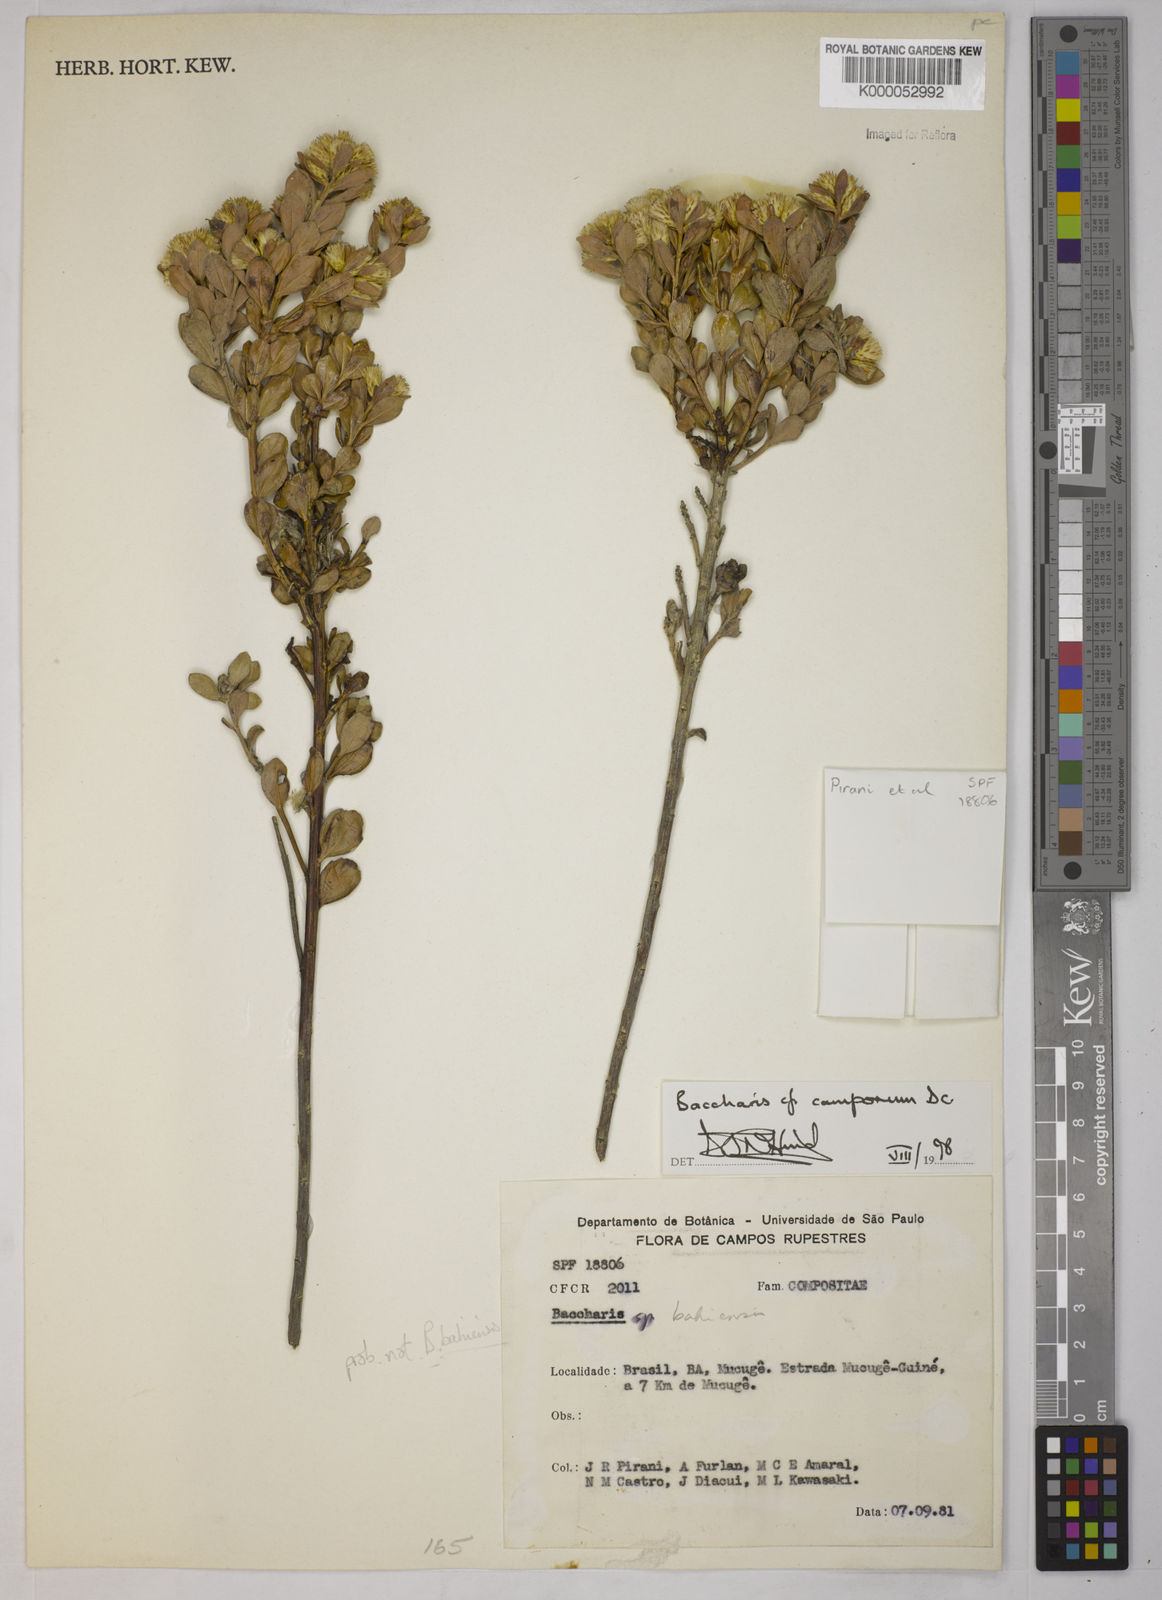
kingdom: Plantae
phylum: Tracheophyta
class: Magnoliopsida
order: Asterales
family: Asteraceae
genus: Baccharis
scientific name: Baccharis camporum
